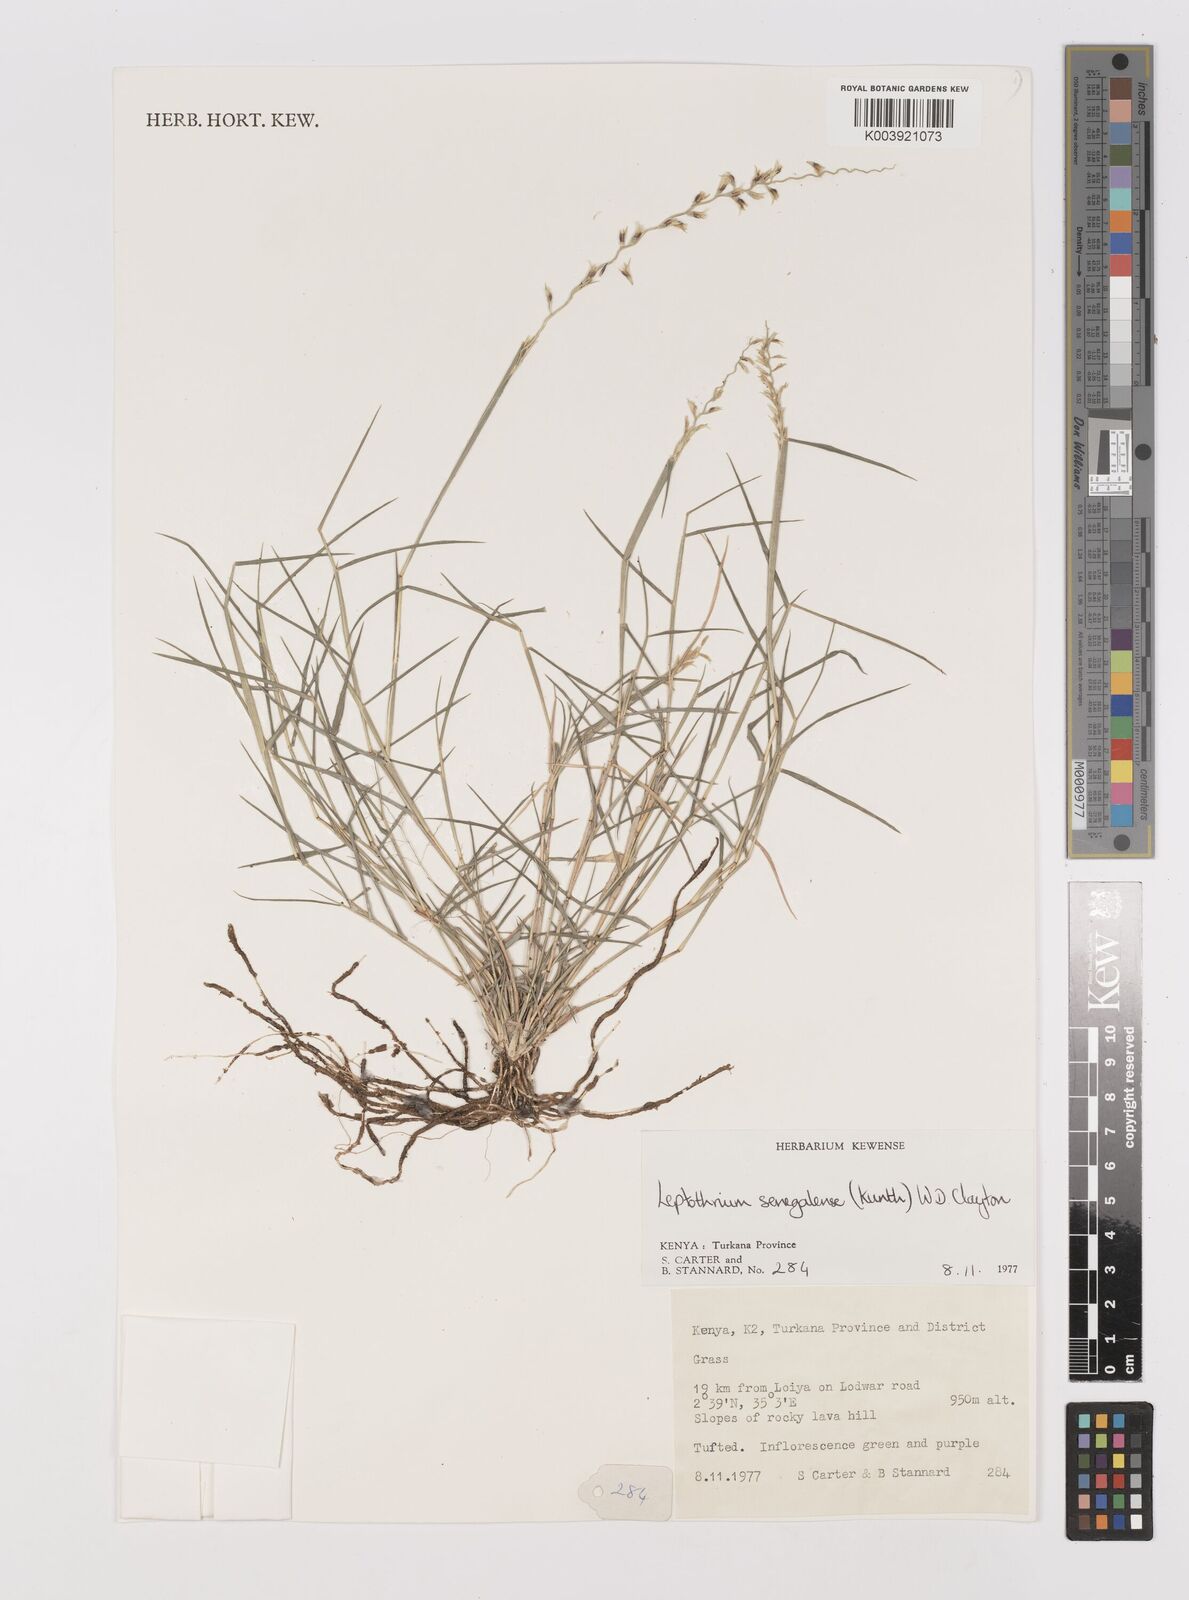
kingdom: Plantae
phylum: Tracheophyta
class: Liliopsida
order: Poales
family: Poaceae
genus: Leptothrium
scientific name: Leptothrium senegalense
